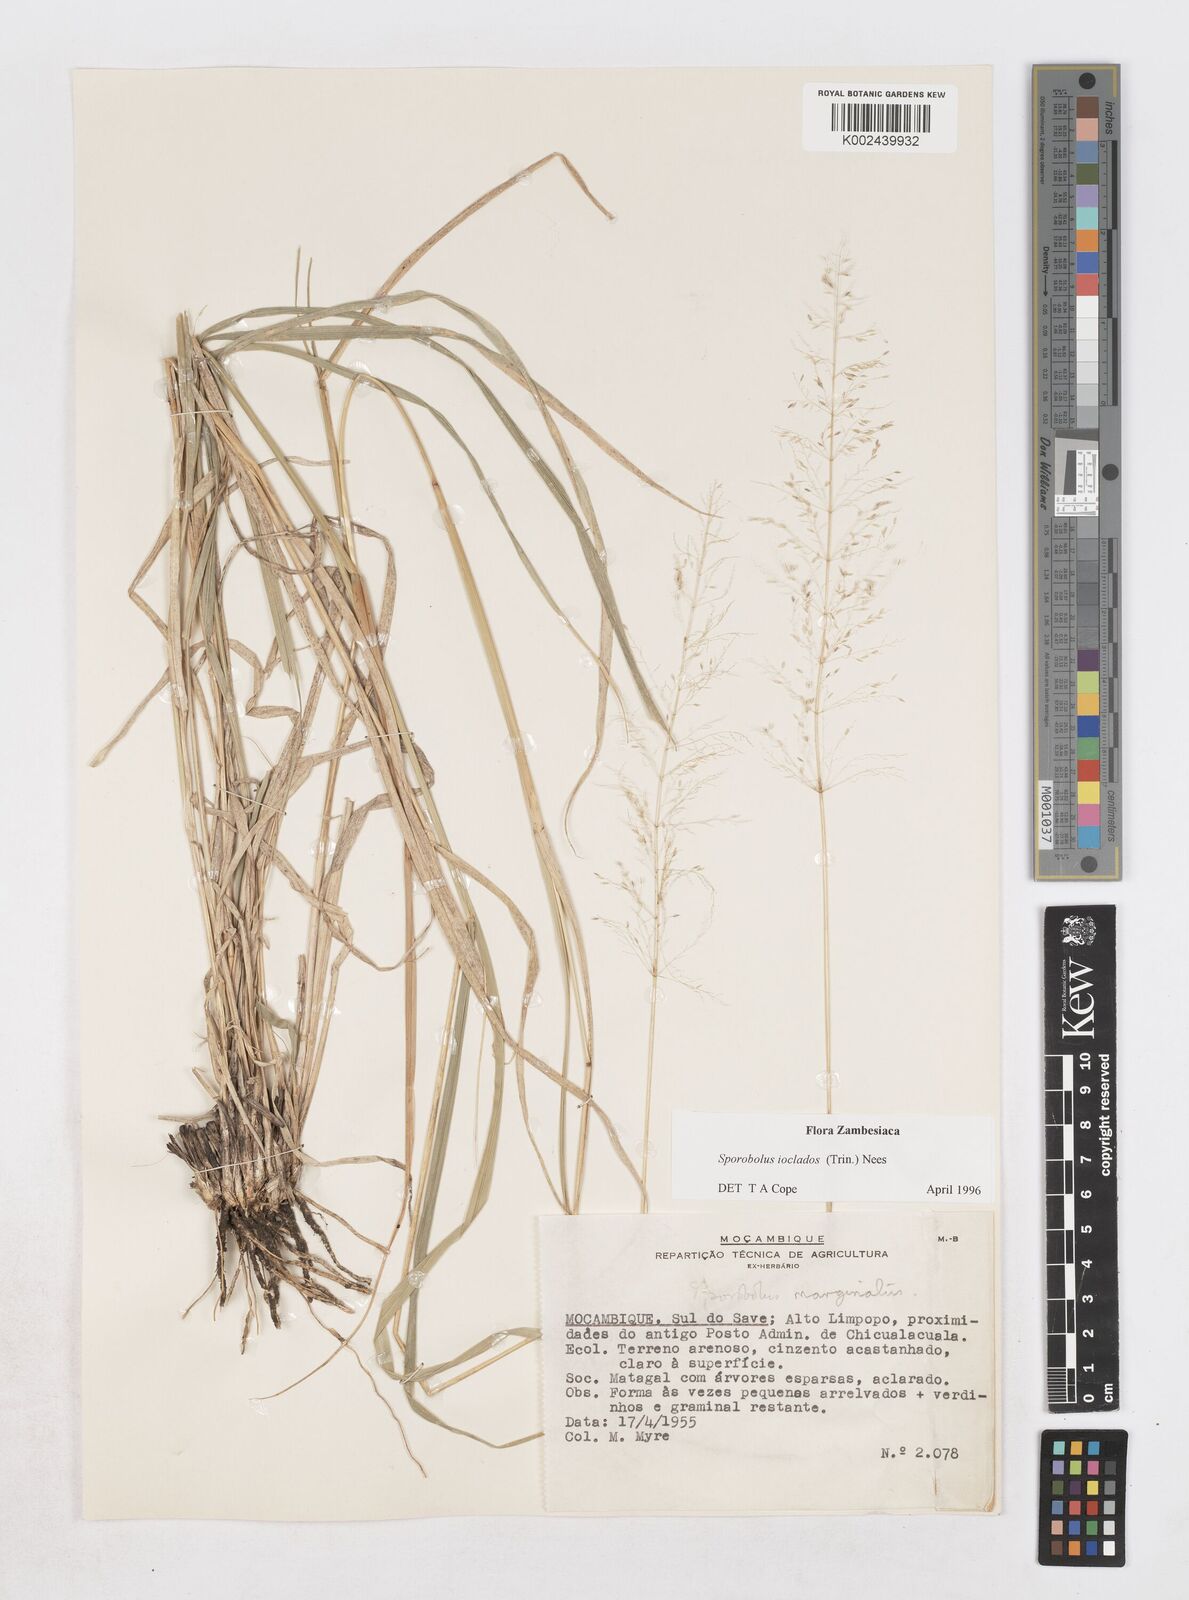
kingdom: Plantae
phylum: Tracheophyta
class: Liliopsida
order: Poales
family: Poaceae
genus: Sporobolus
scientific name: Sporobolus ioclados
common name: Pan dropseed
